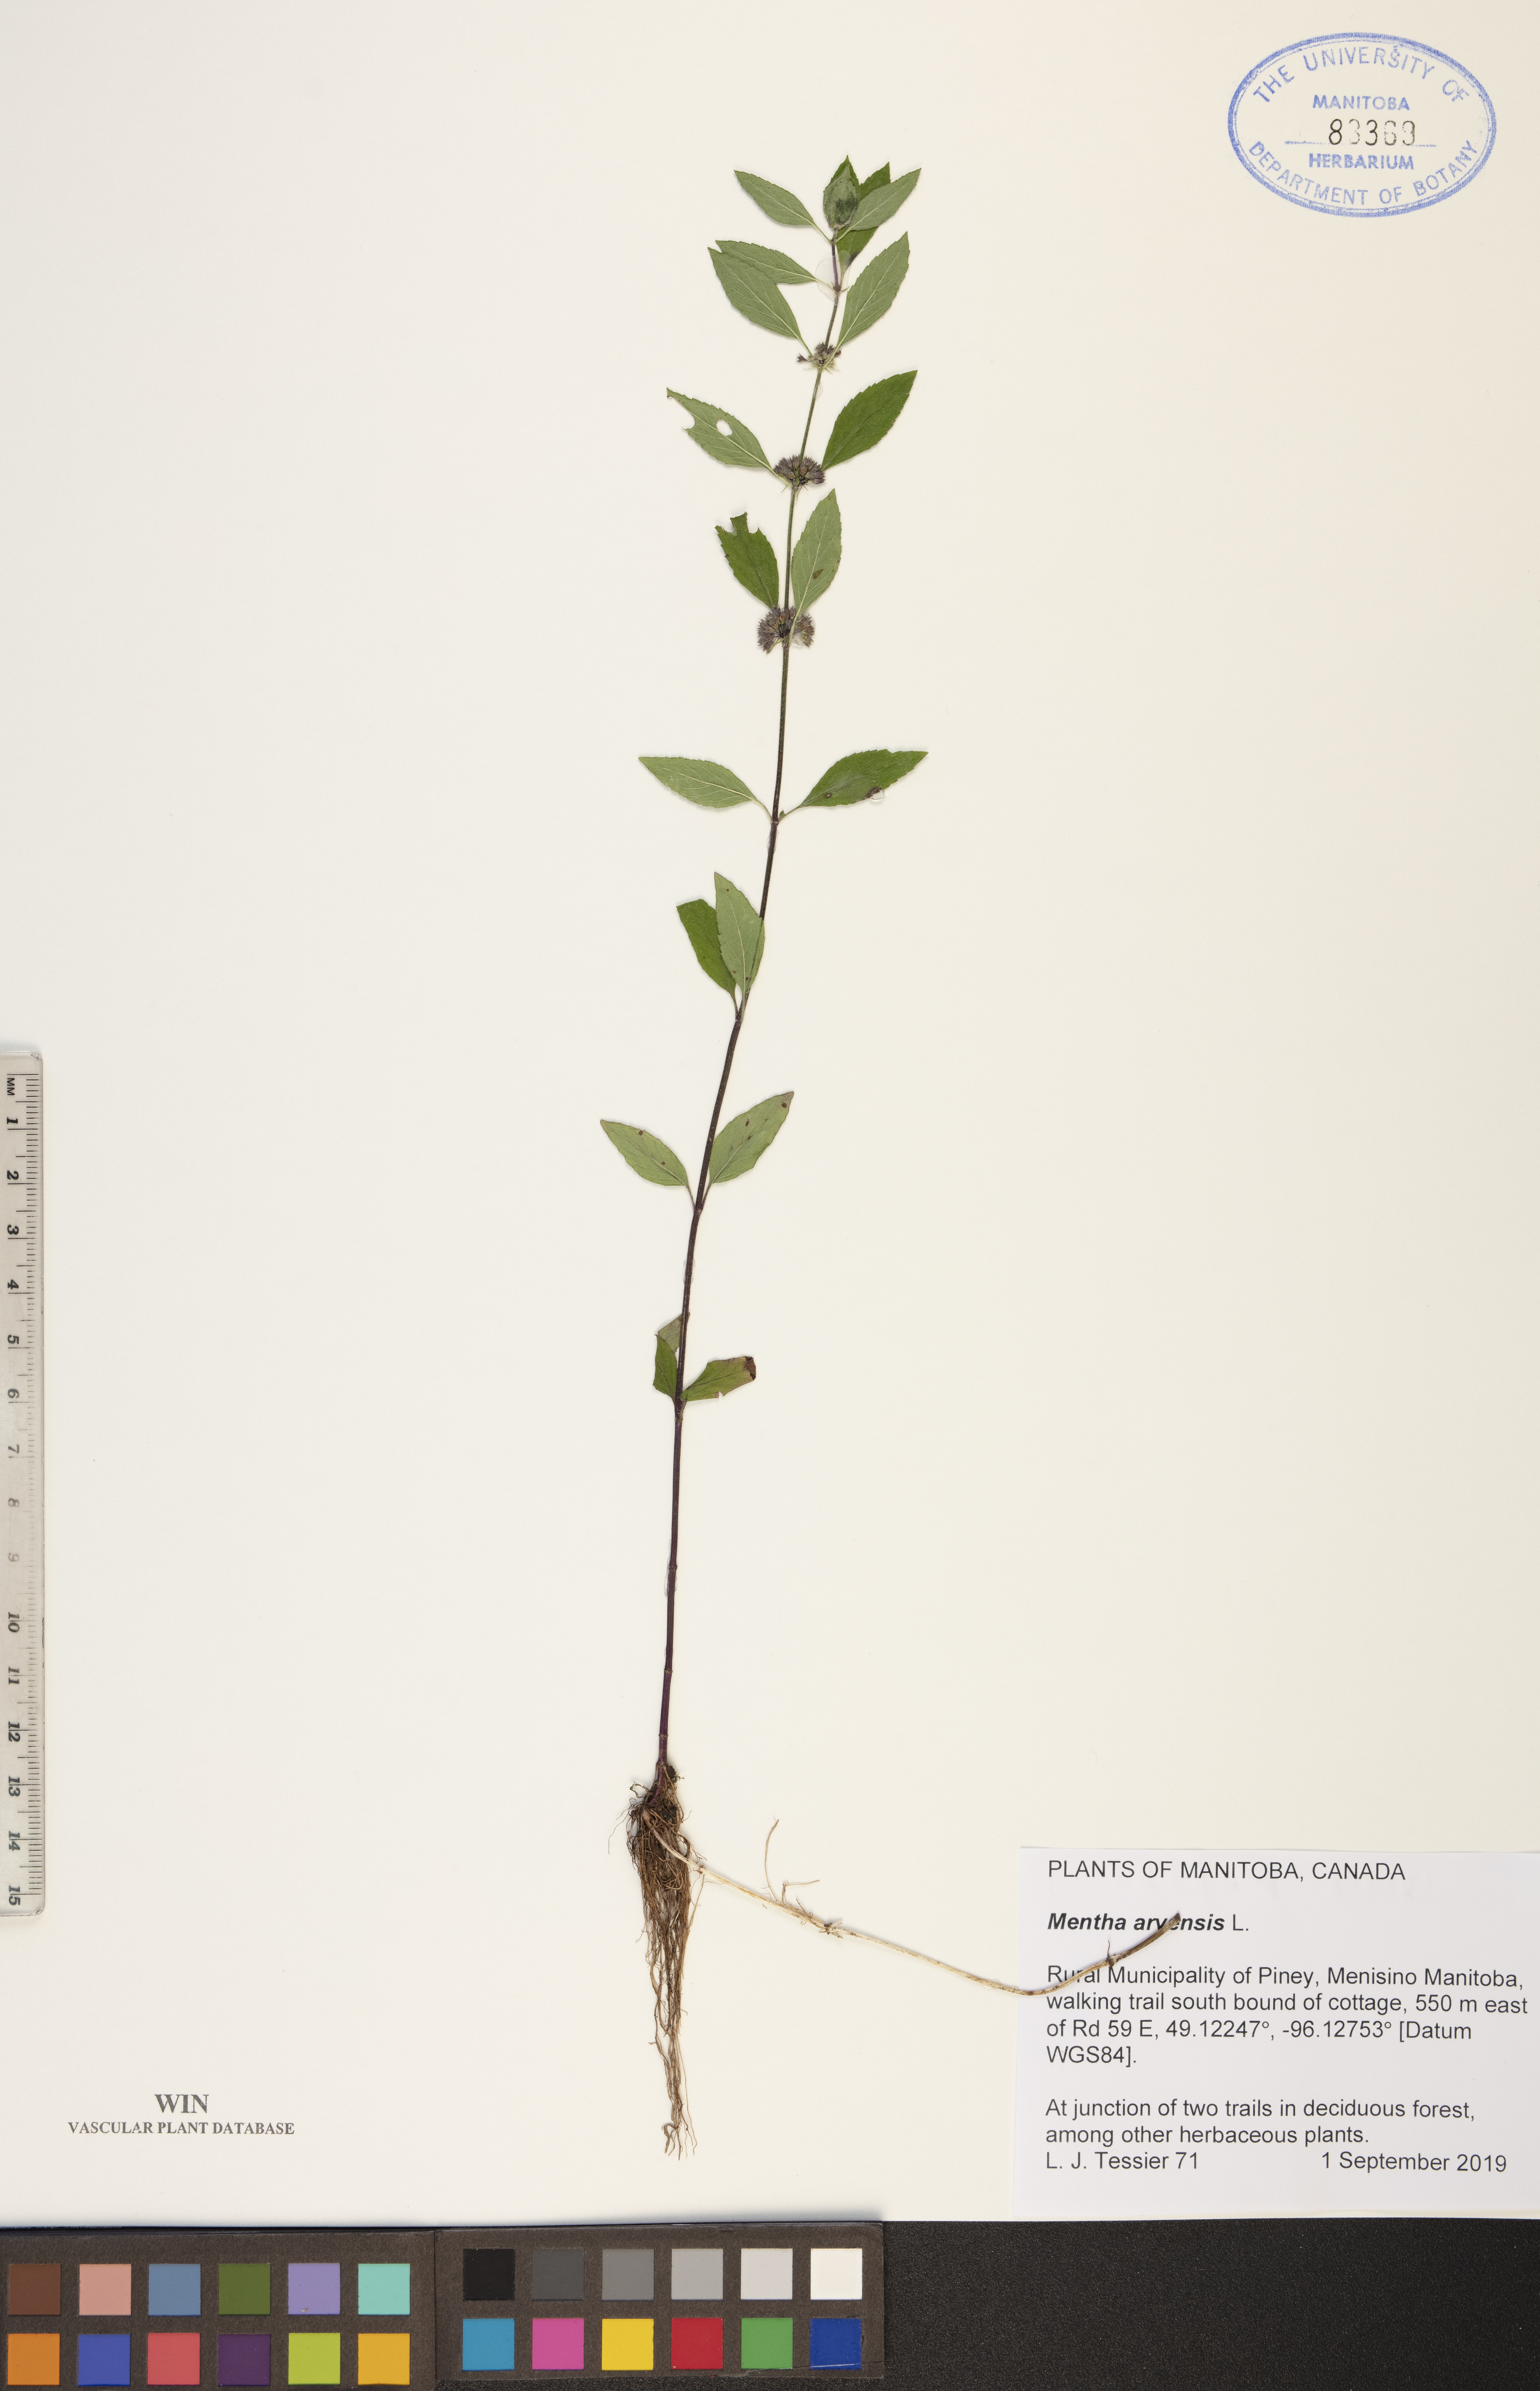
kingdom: Plantae
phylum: Tracheophyta
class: Magnoliopsida
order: Lamiales
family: Lamiaceae
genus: Mentha
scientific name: Mentha arvensis
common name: Corn mint
